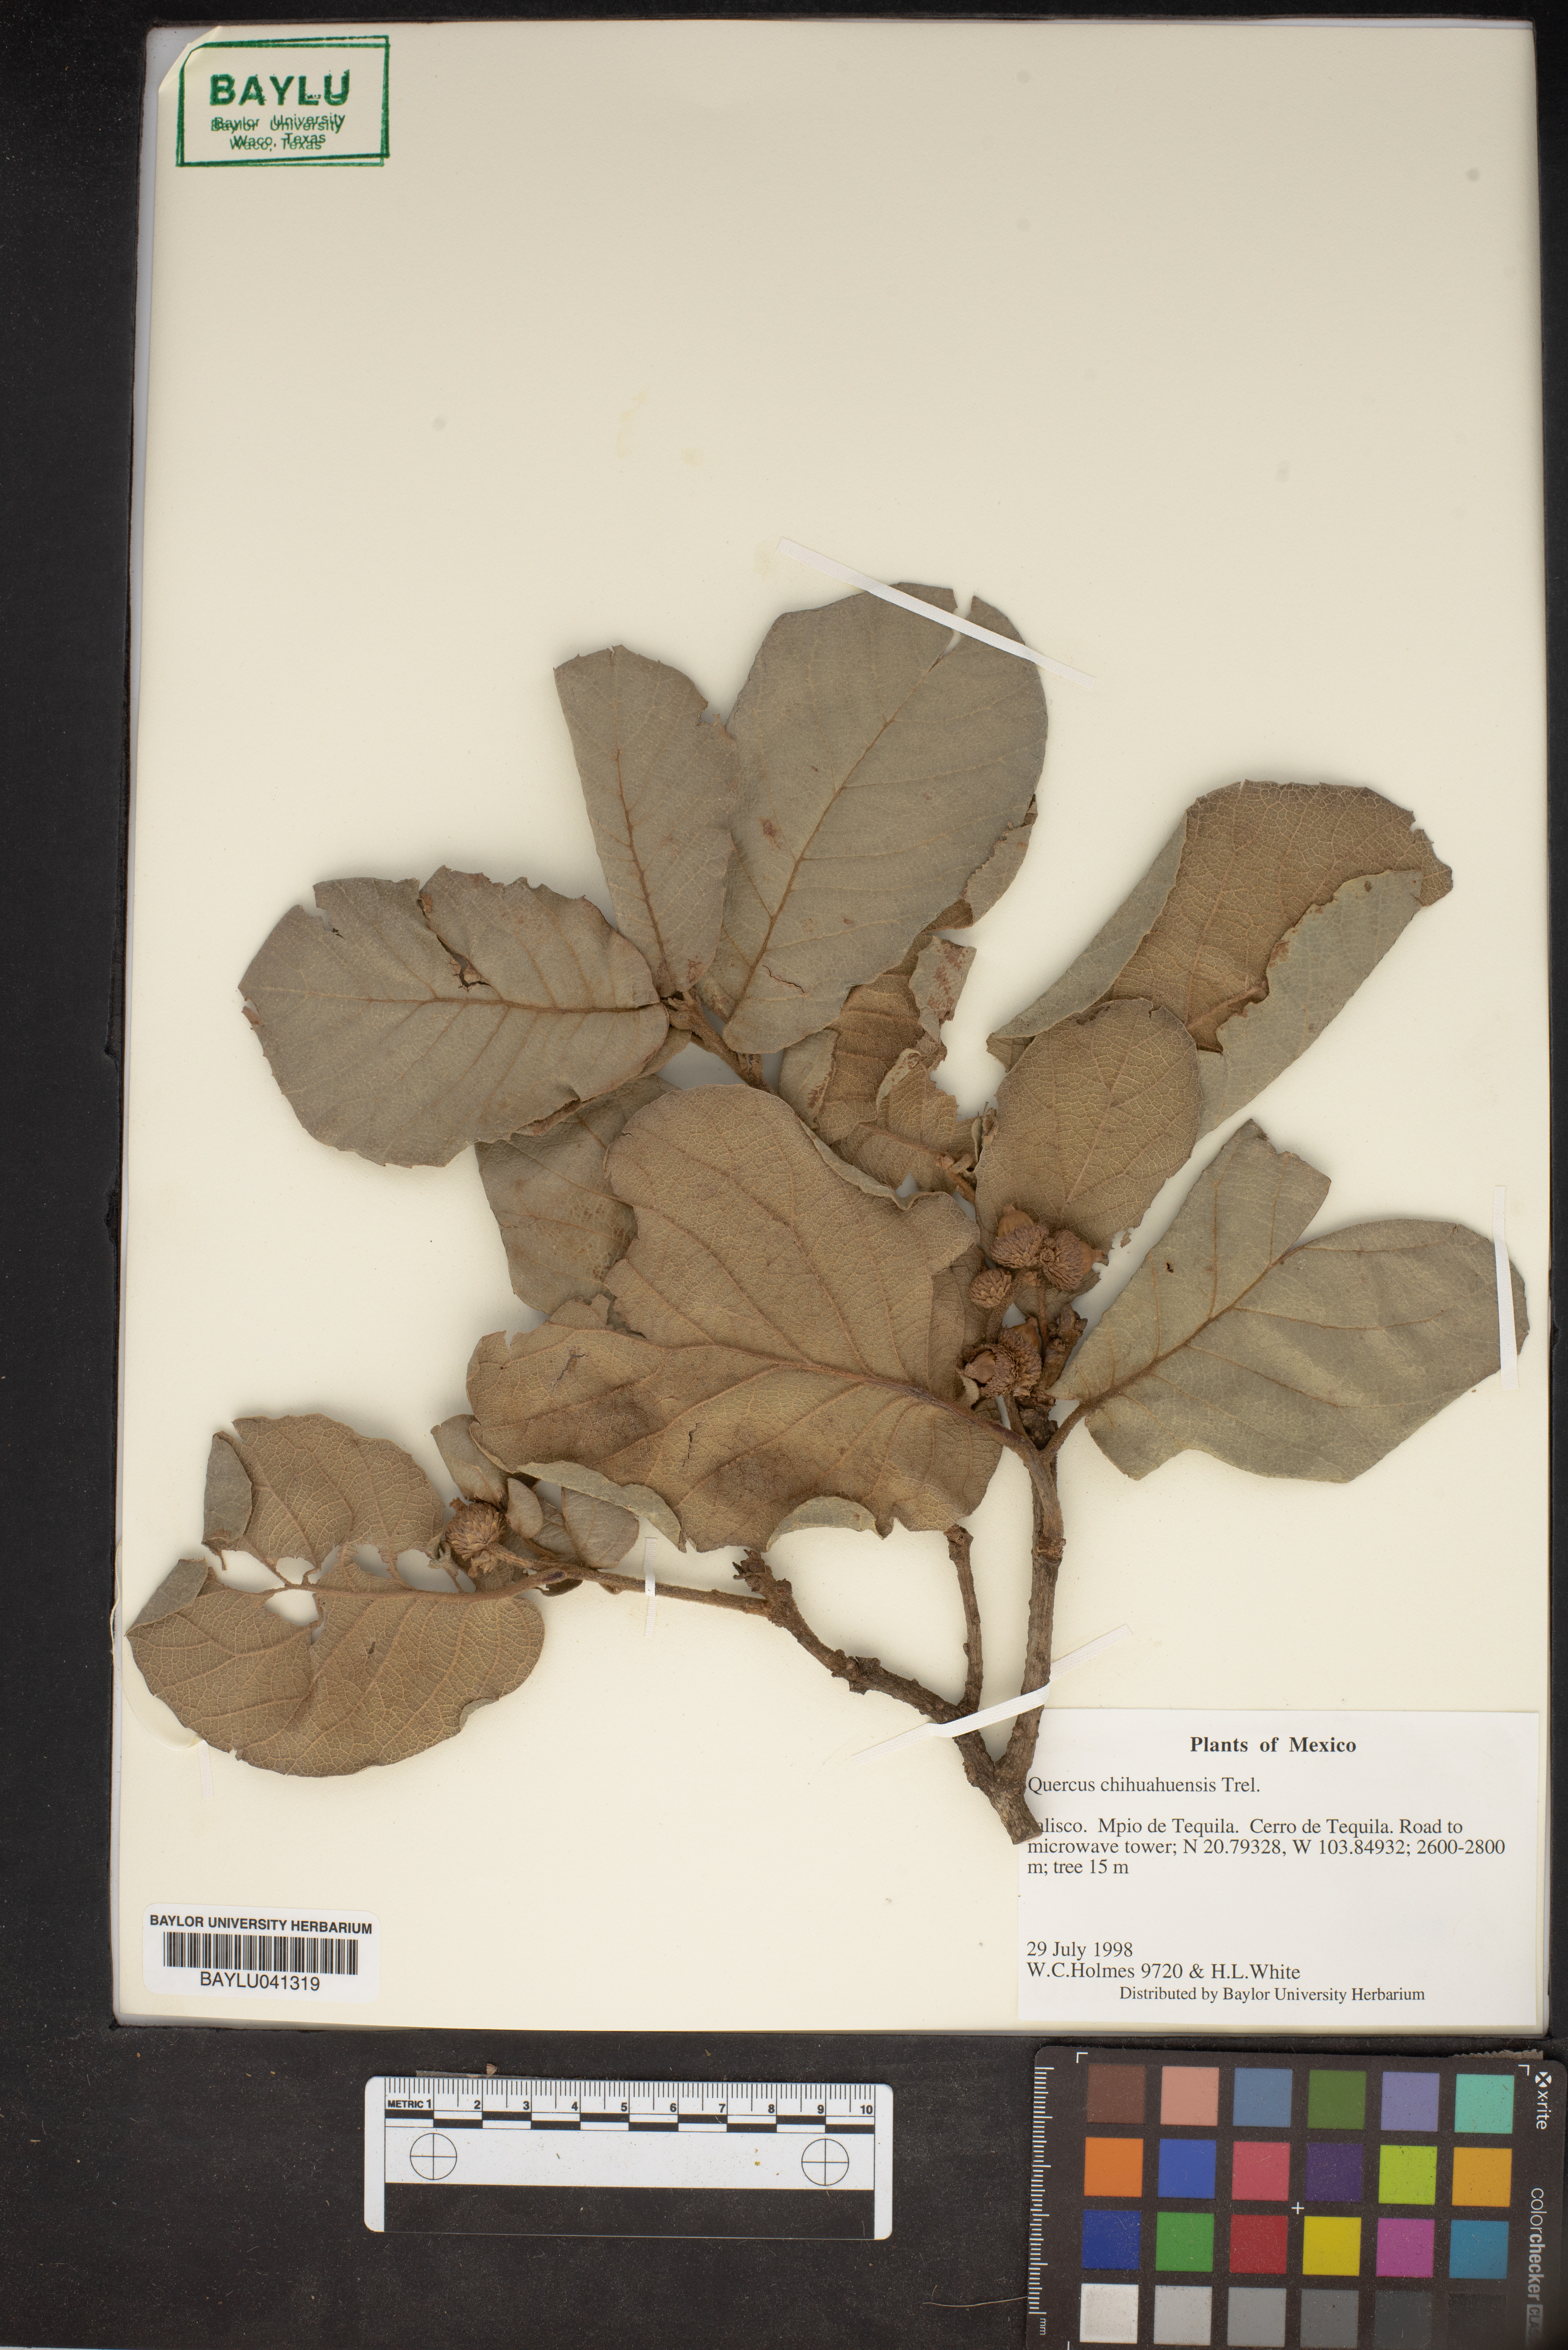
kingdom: Plantae
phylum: Tracheophyta
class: Magnoliopsida
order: Fagales
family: Fagaceae
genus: Quercus
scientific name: Quercus chihuahuensis
